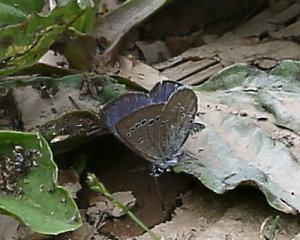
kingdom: Animalia
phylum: Arthropoda
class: Insecta
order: Lepidoptera
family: Lycaenidae
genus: Glaucopsyche
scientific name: Glaucopsyche lygdamus
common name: Silvery Blue
